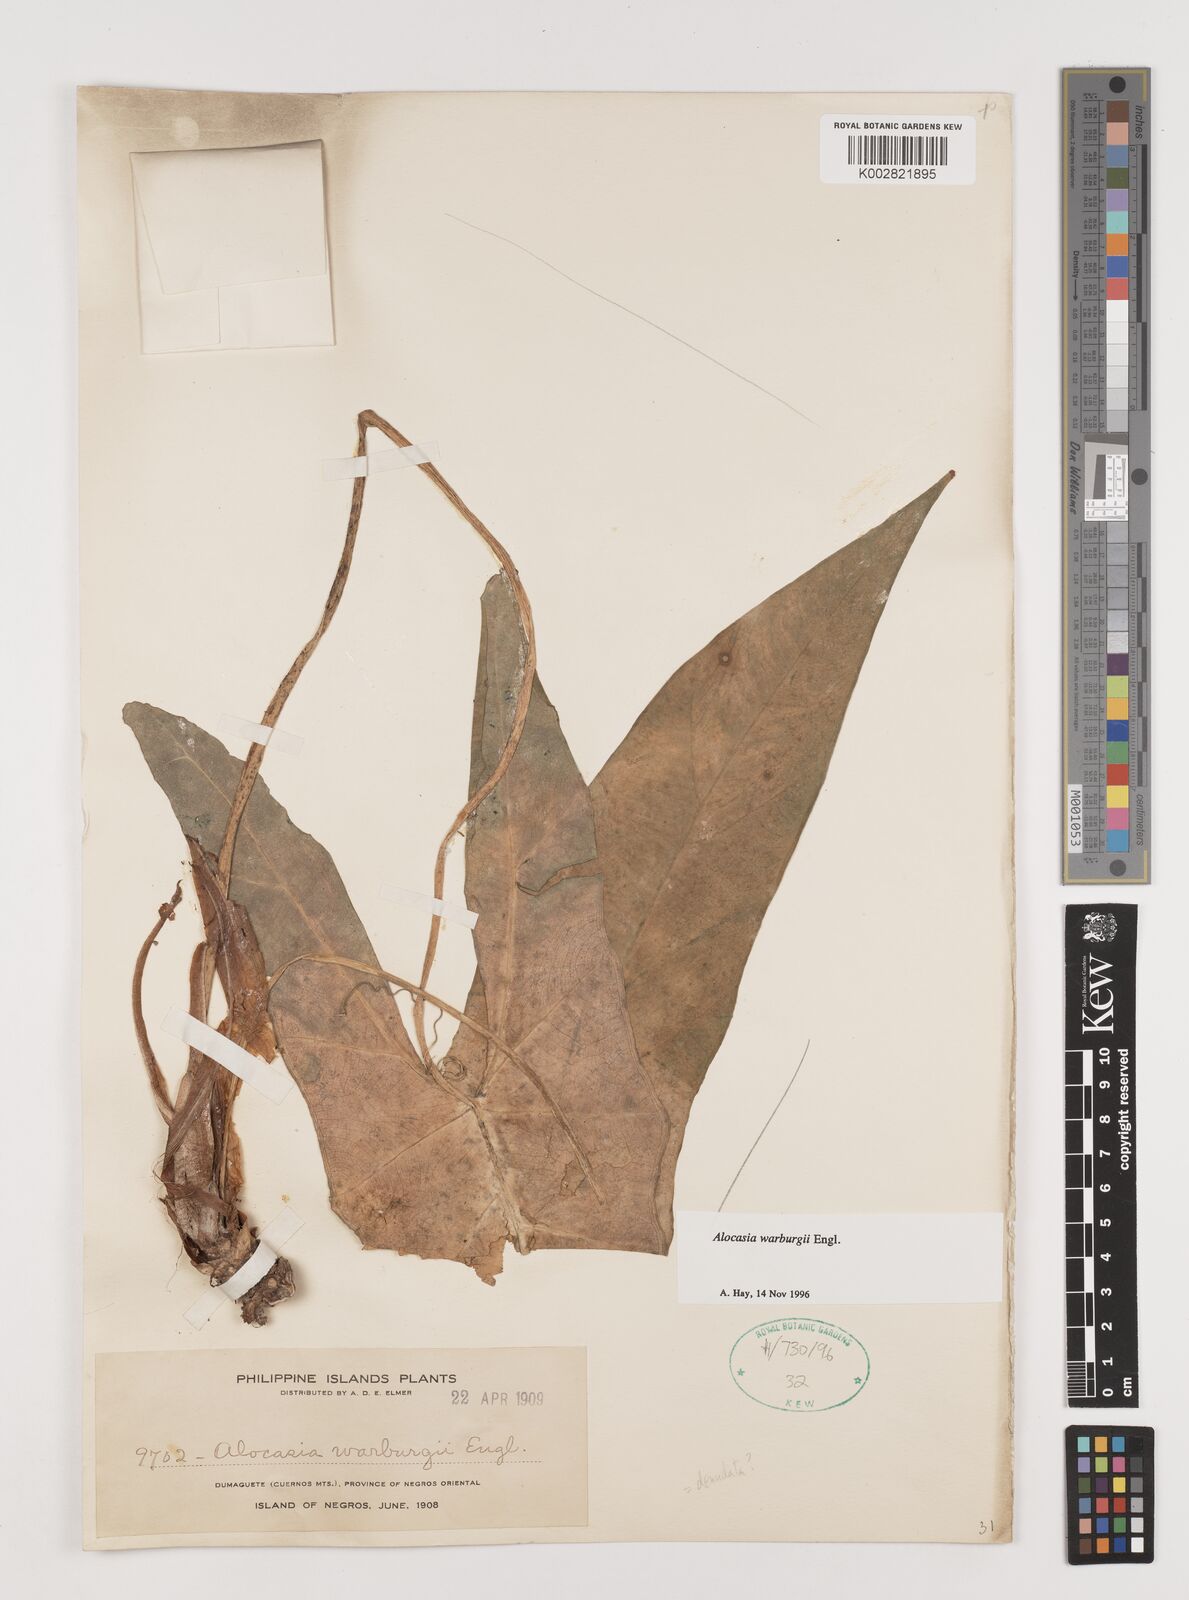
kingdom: Plantae
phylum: Tracheophyta
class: Liliopsida
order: Alismatales
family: Araceae
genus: Alocasia
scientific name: Alocasia heterophylla
